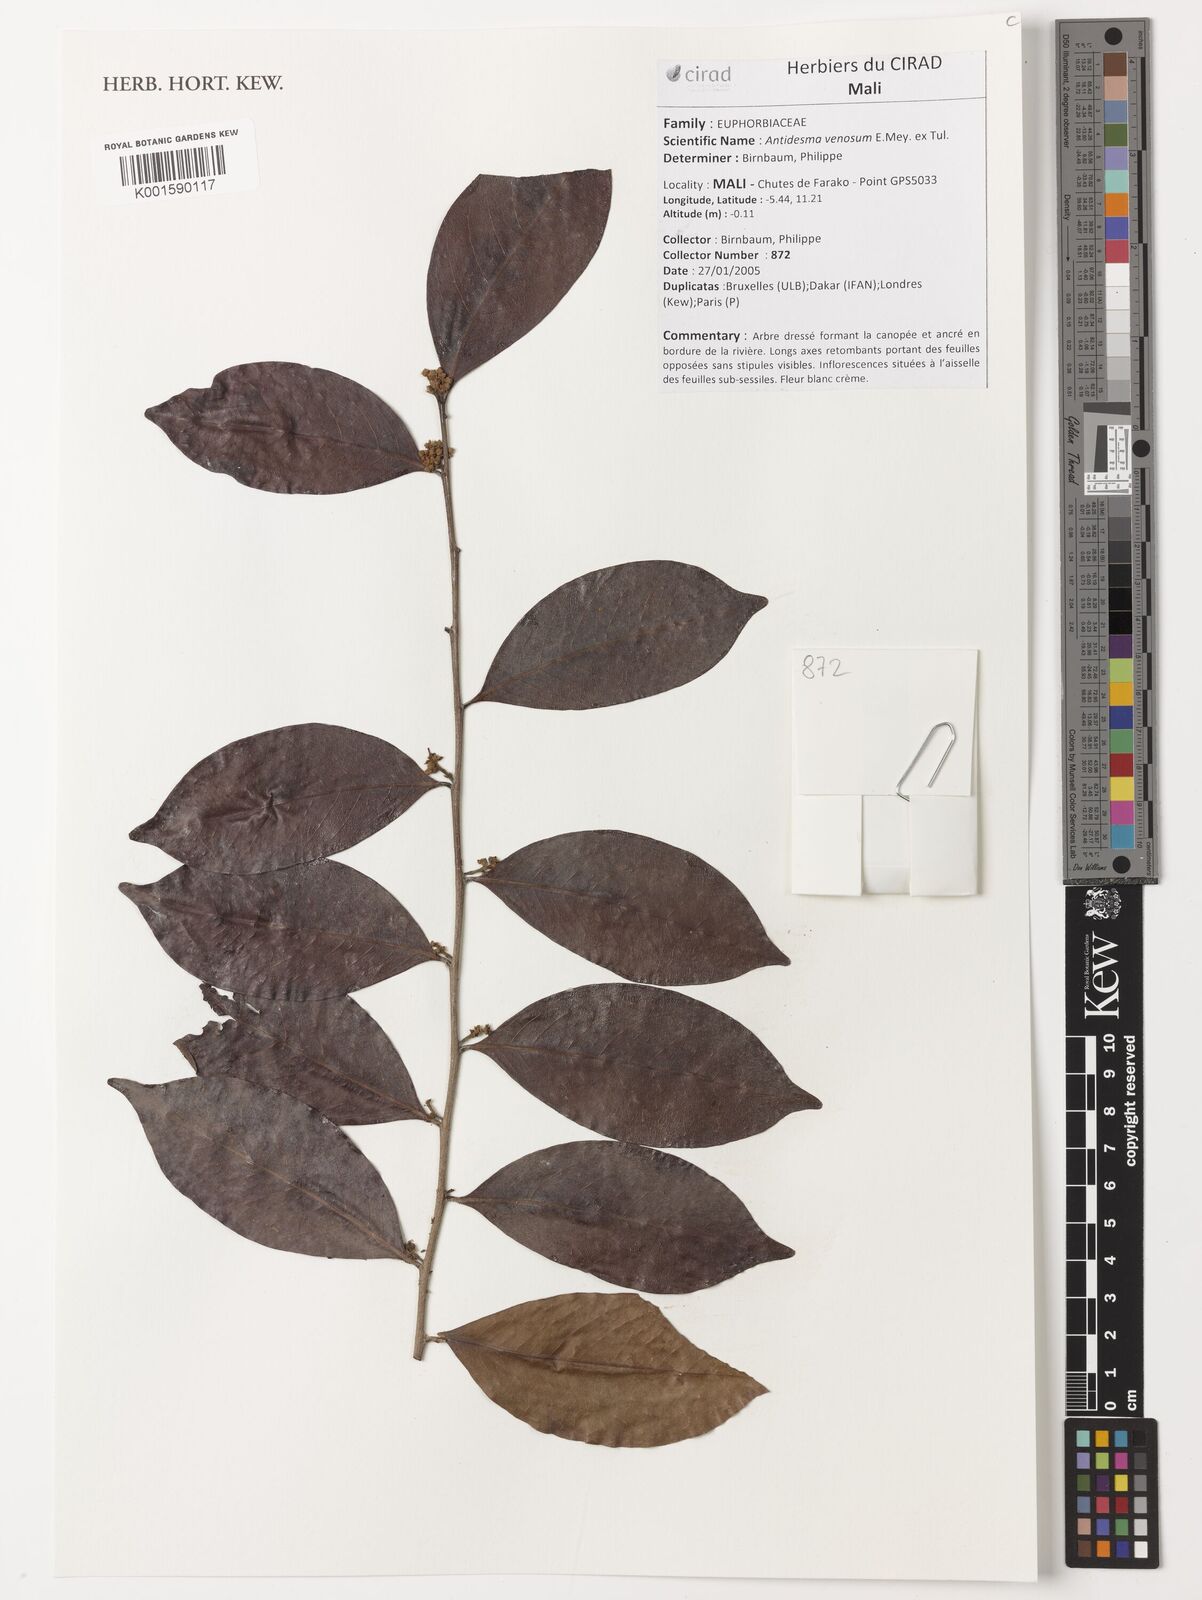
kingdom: Plantae
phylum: Tracheophyta
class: Magnoliopsida
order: Malpighiales
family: Phyllanthaceae
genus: Antidesma
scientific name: Antidesma venosum
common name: Tassel-berry
